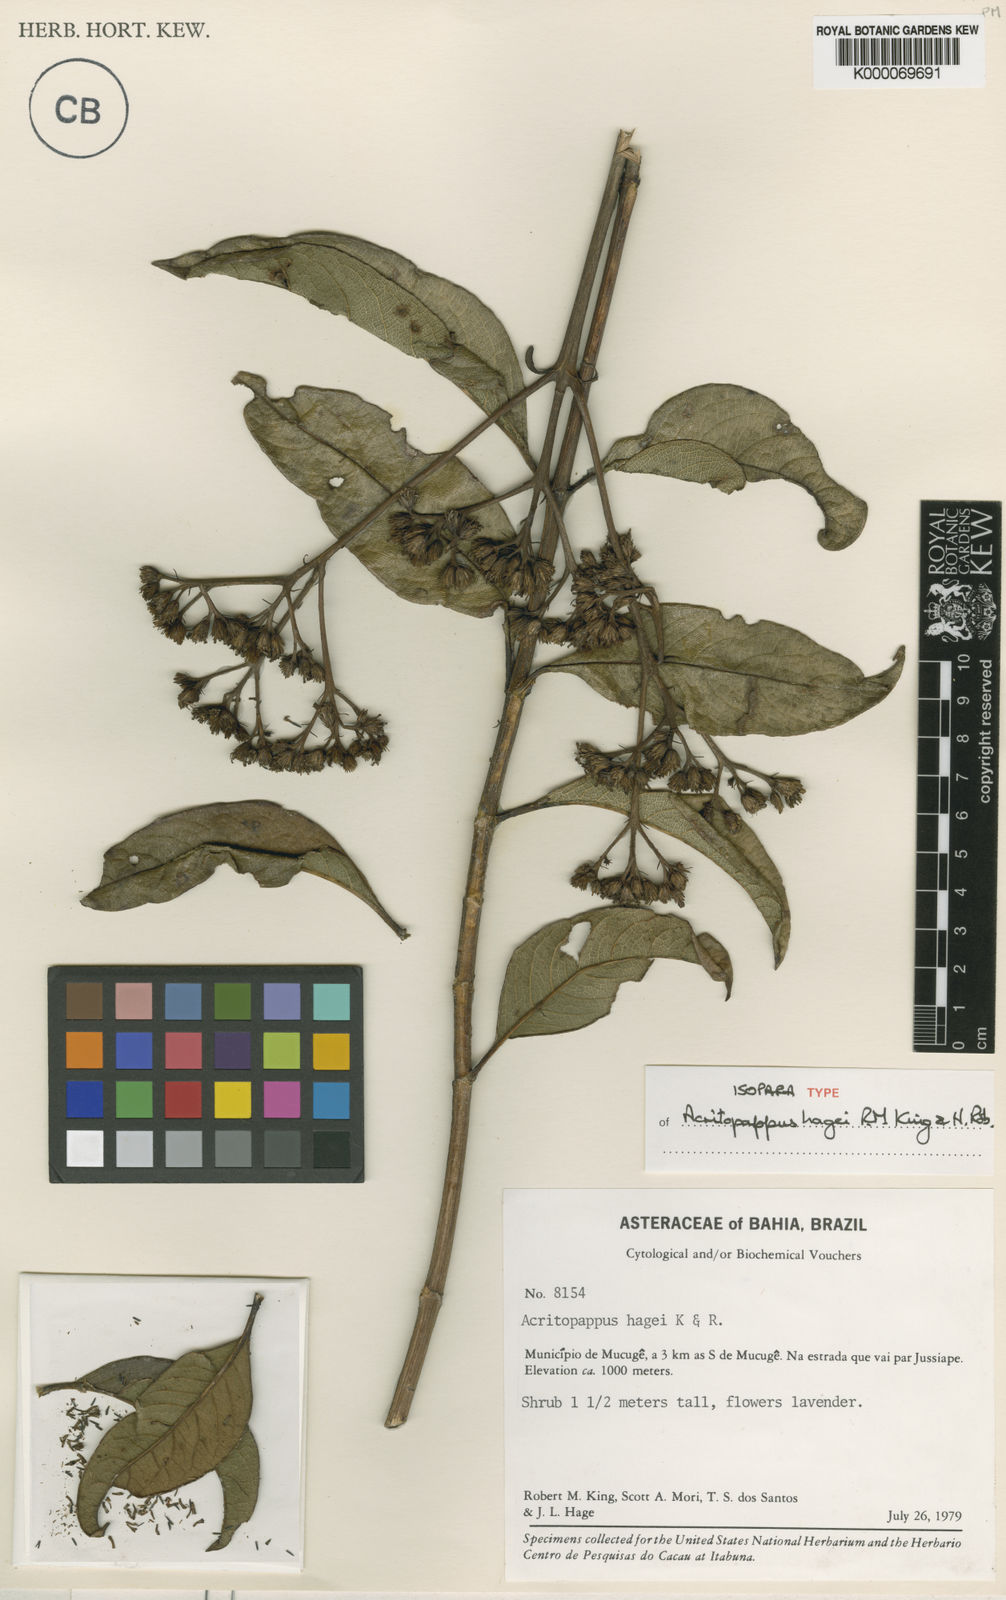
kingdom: Plantae
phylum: Tracheophyta
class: Magnoliopsida
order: Asterales
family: Asteraceae
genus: Acritopappus
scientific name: Acritopappus heterolepis
